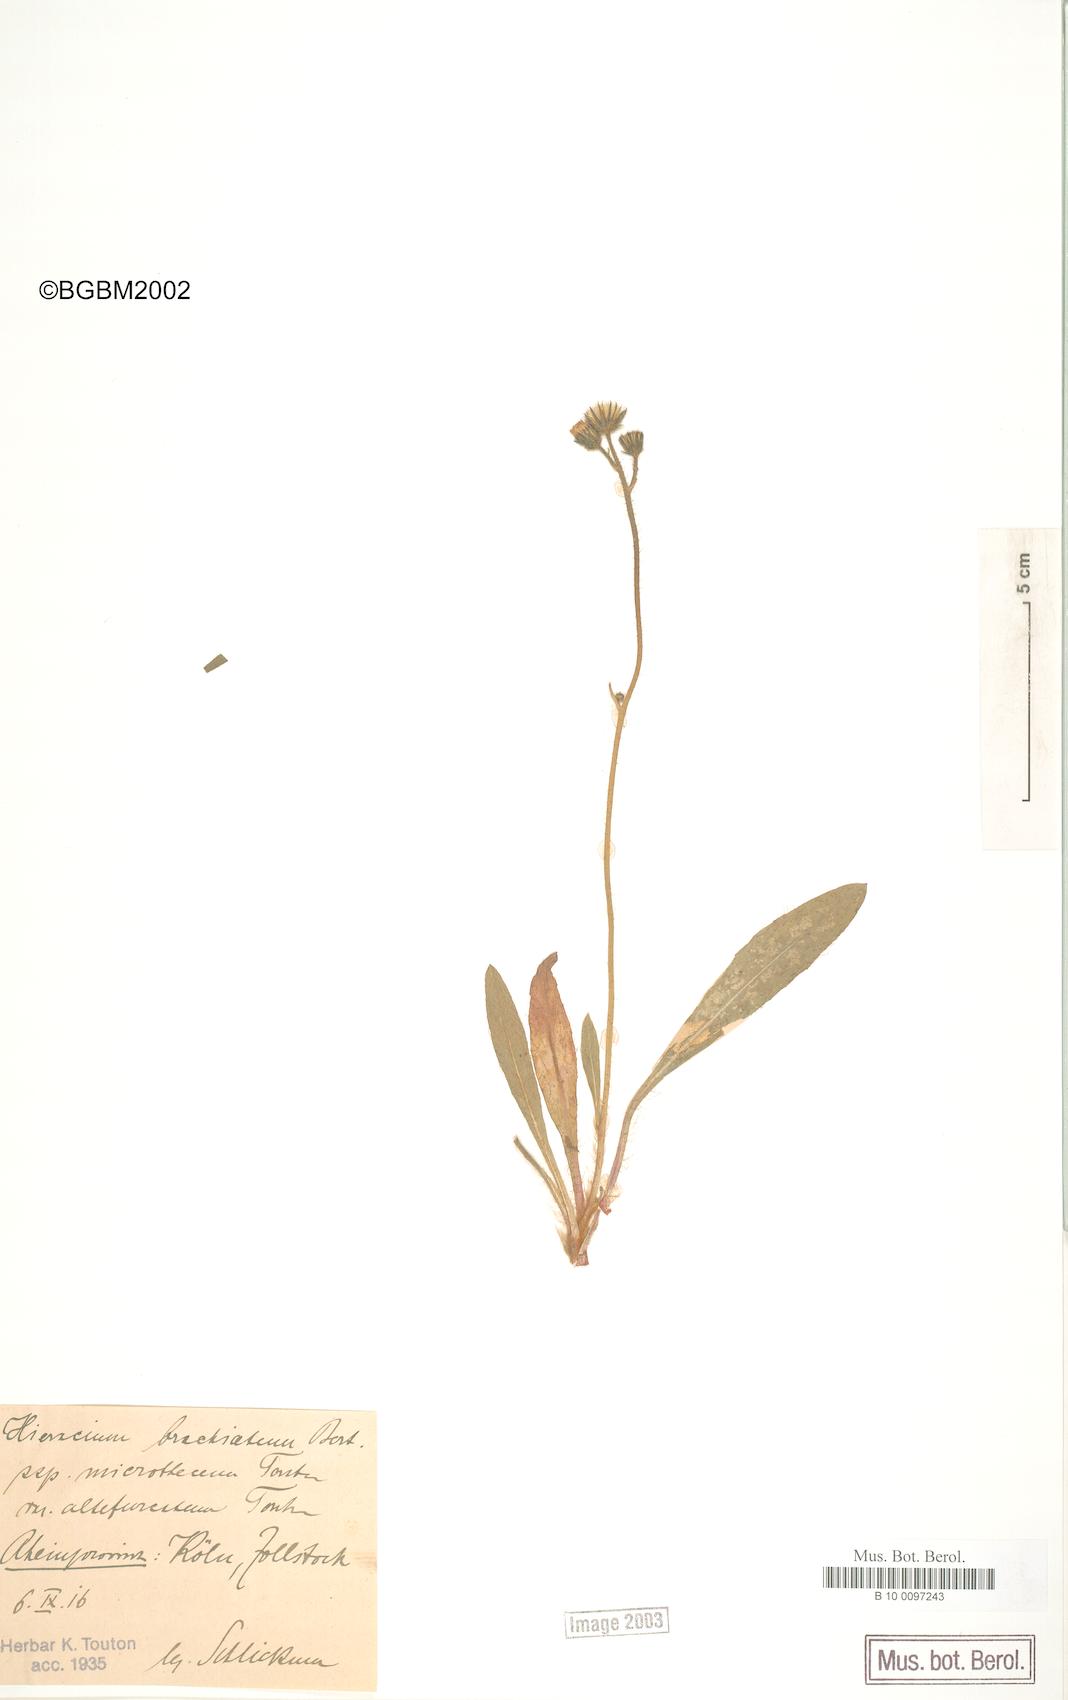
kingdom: Plantae
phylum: Tracheophyta
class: Magnoliopsida
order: Asterales
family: Asteraceae
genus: Pilosella
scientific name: Pilosella acutifolia
